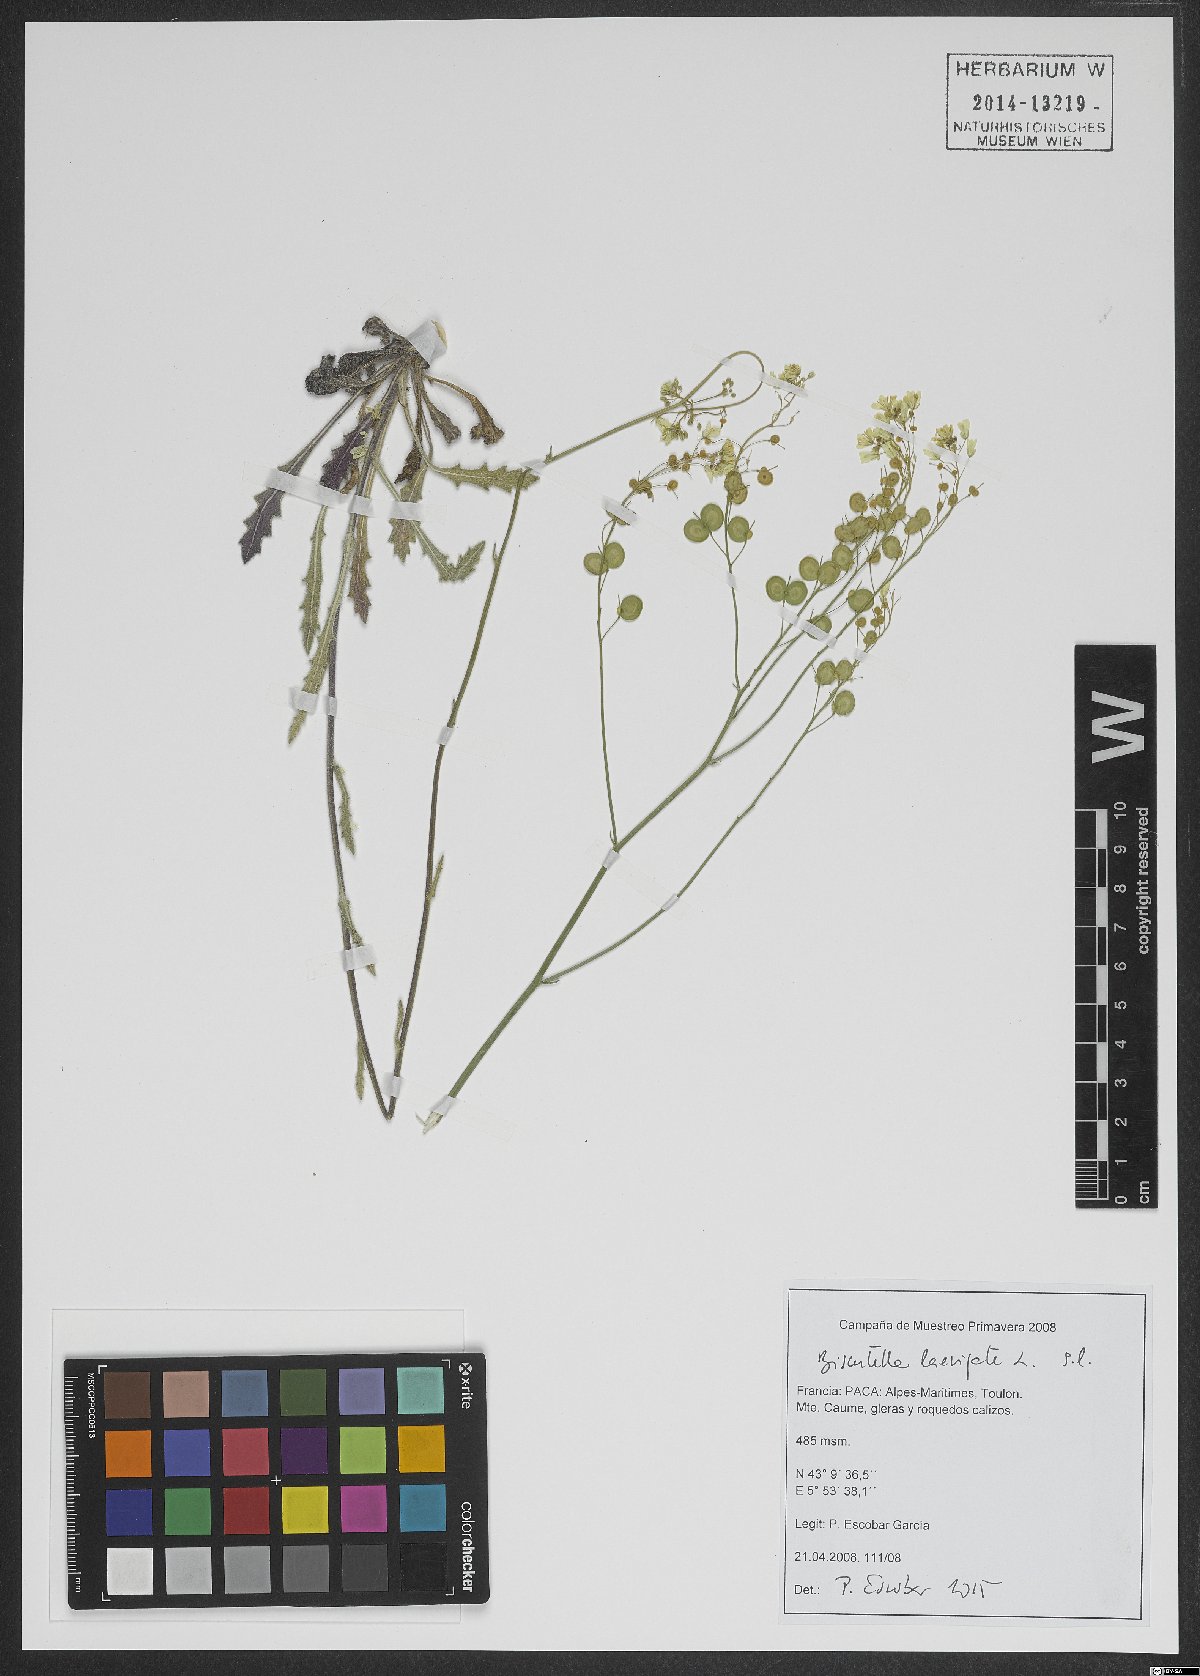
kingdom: Plantae
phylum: Tracheophyta
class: Magnoliopsida
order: Brassicales
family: Brassicaceae
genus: Biscutella
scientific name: Biscutella laevigata
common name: Buckler mustard
